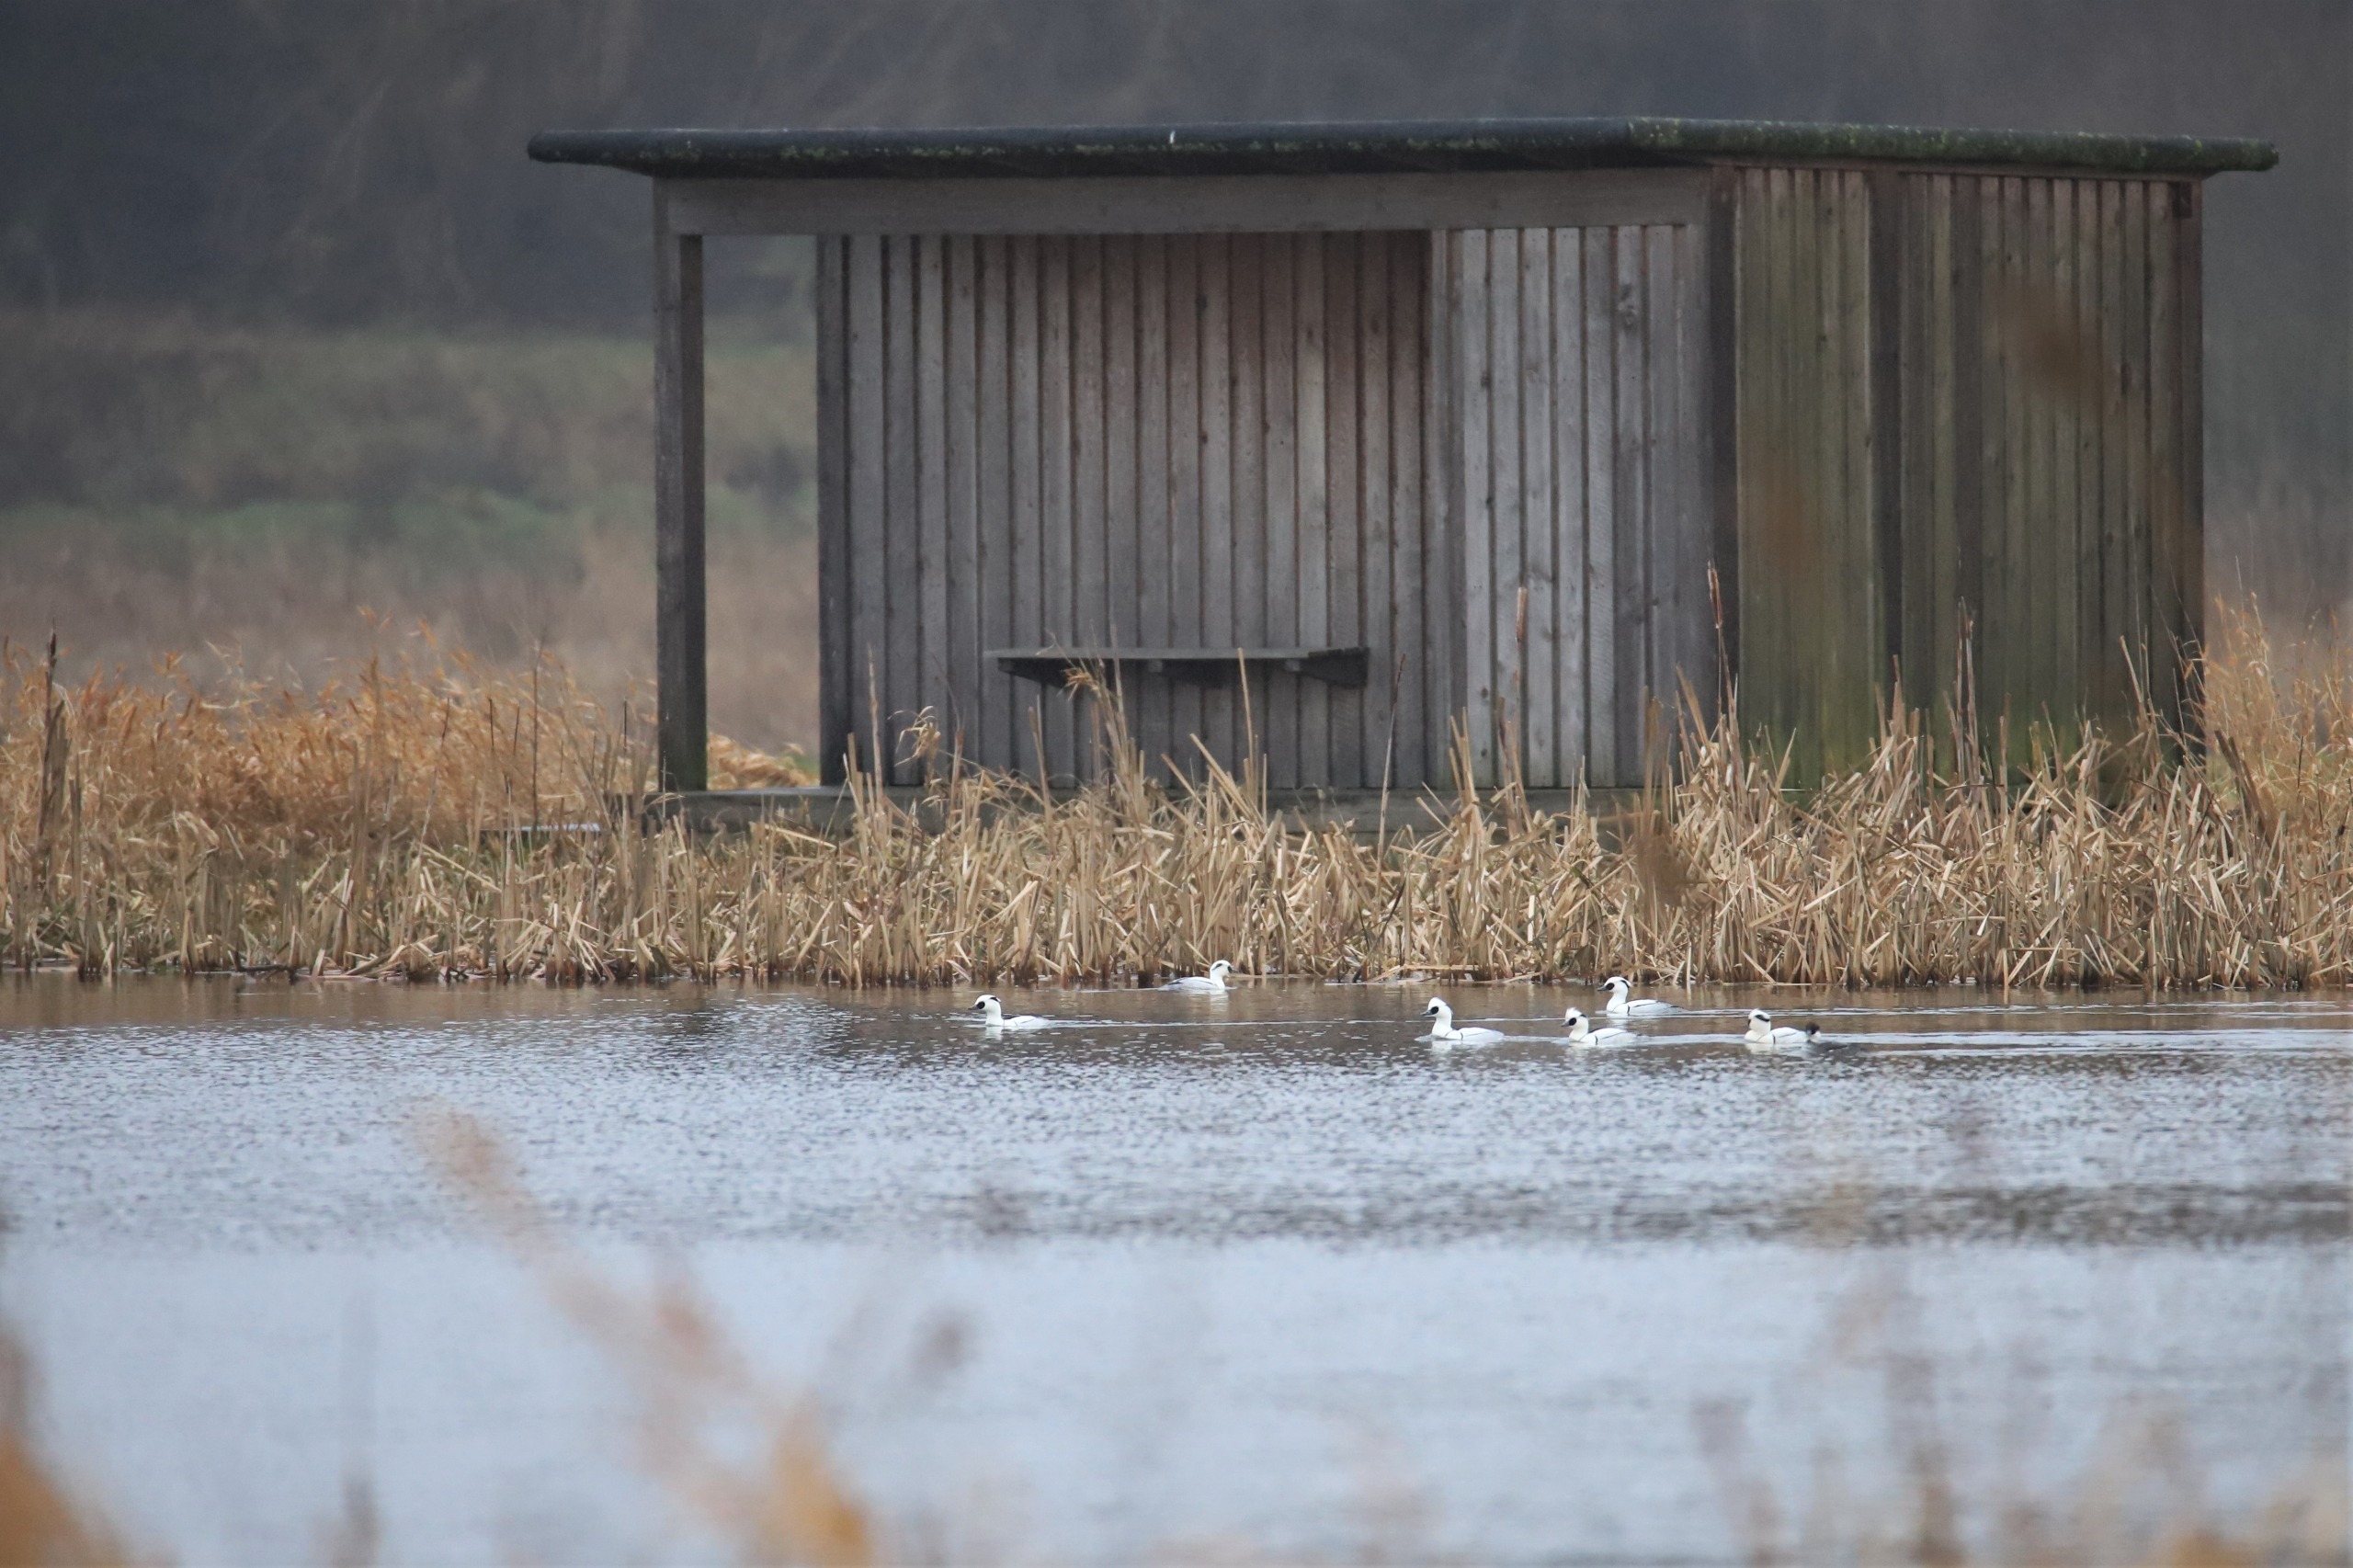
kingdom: Animalia
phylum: Chordata
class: Aves
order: Anseriformes
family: Anatidae
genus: Mergellus
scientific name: Mergellus albellus
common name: Lille skallesluger
